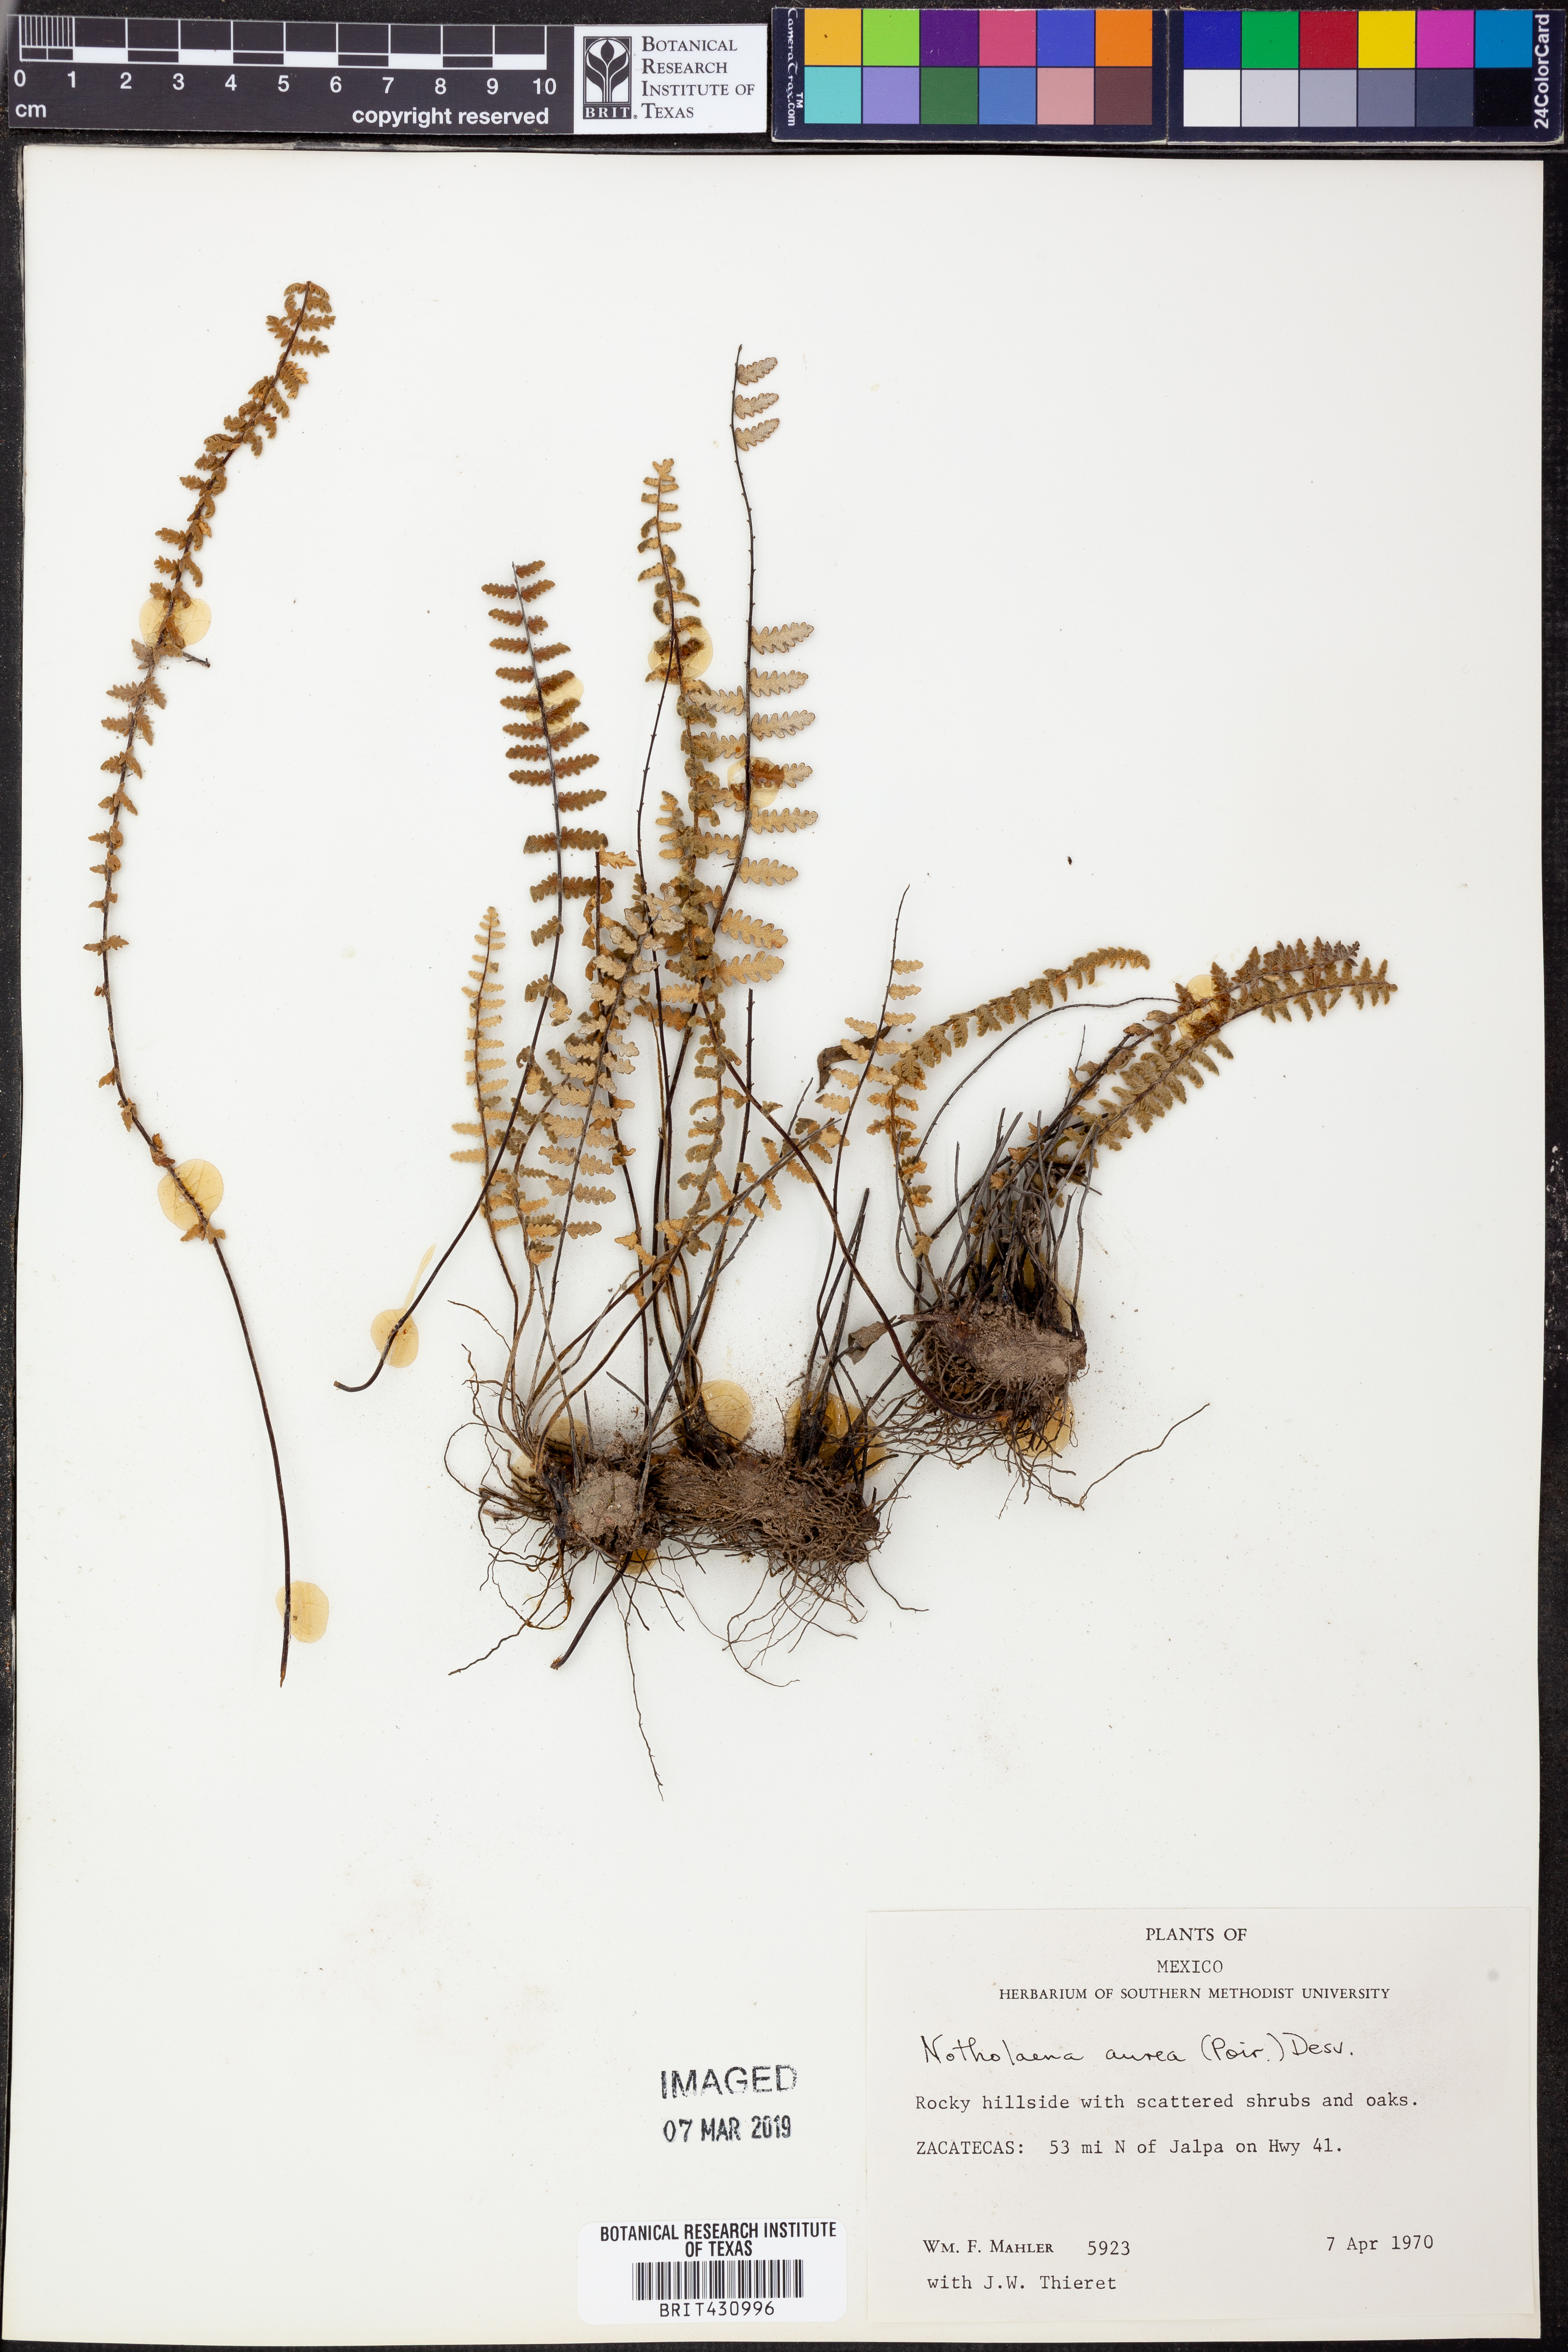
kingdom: Plantae
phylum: Tracheophyta
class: Polypodiopsida
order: Polypodiales
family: Pteridaceae
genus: Myriopteris
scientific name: Myriopteris aurea
